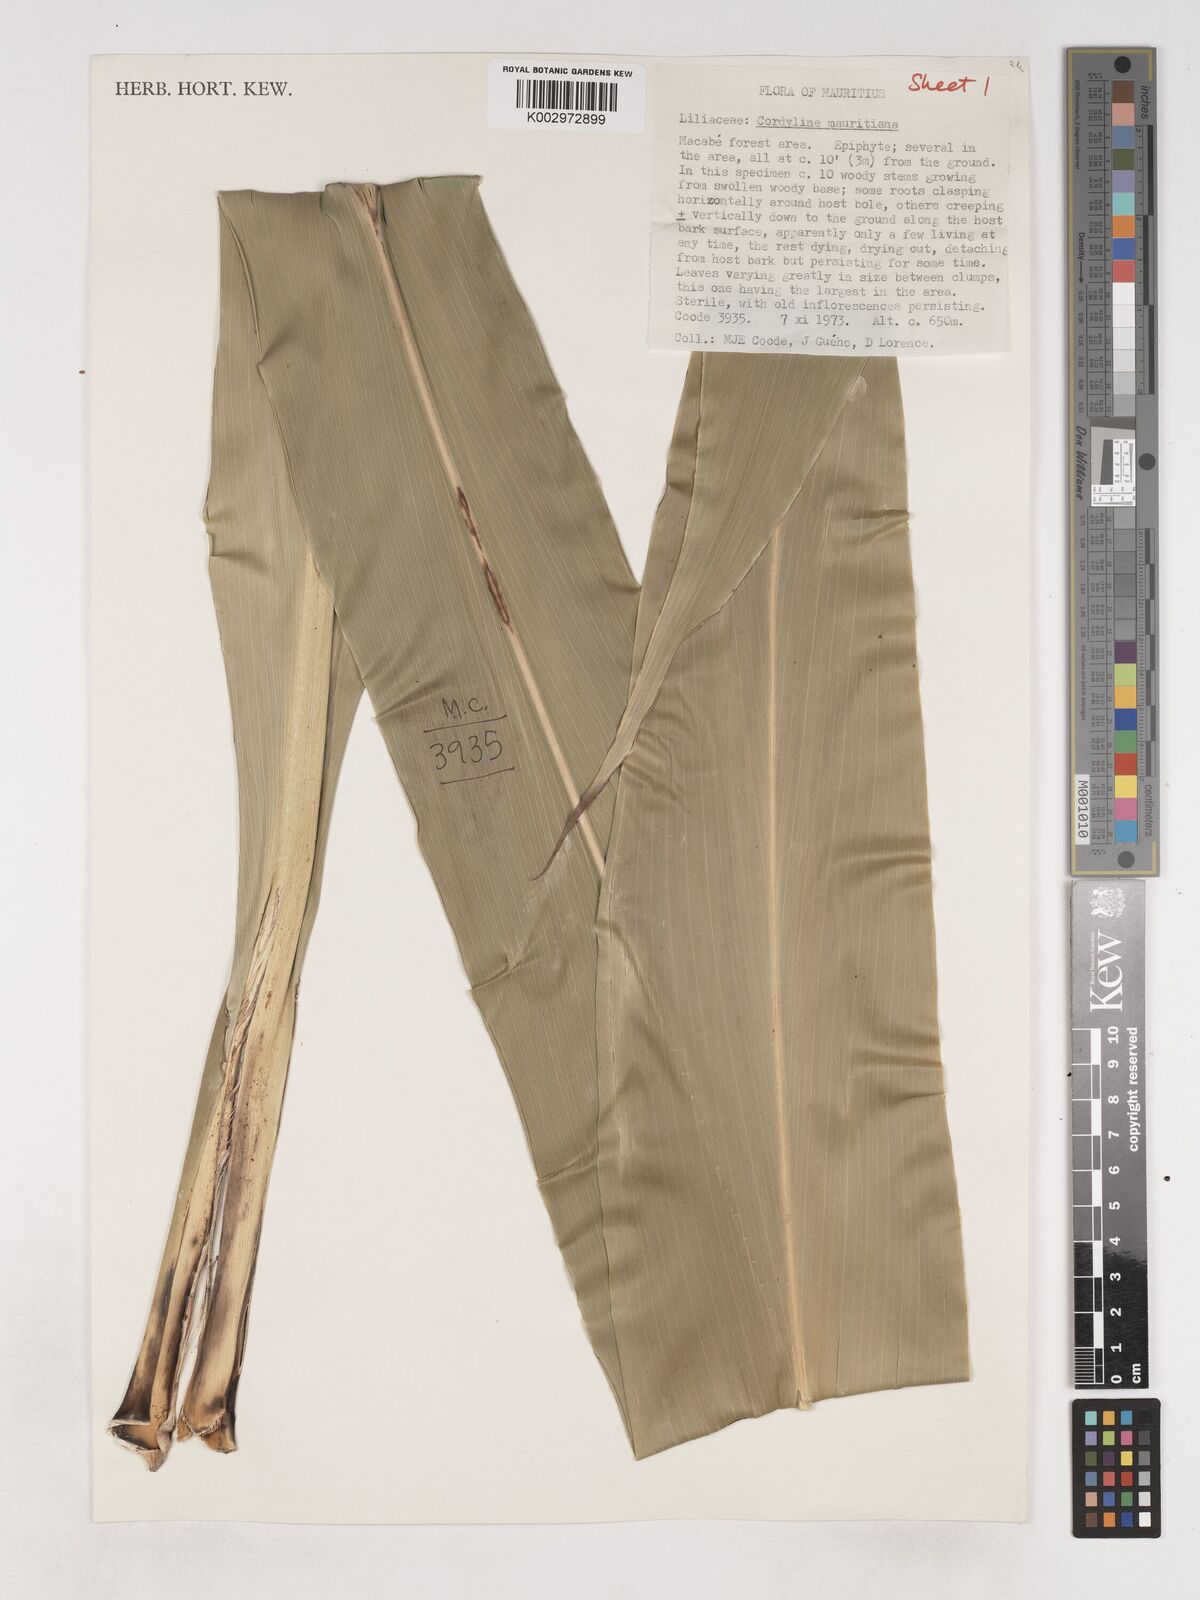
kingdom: Plantae
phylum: Tracheophyta
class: Liliopsida
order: Asparagales
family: Asparagaceae
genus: Cordyline
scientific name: Cordyline mauritiana
